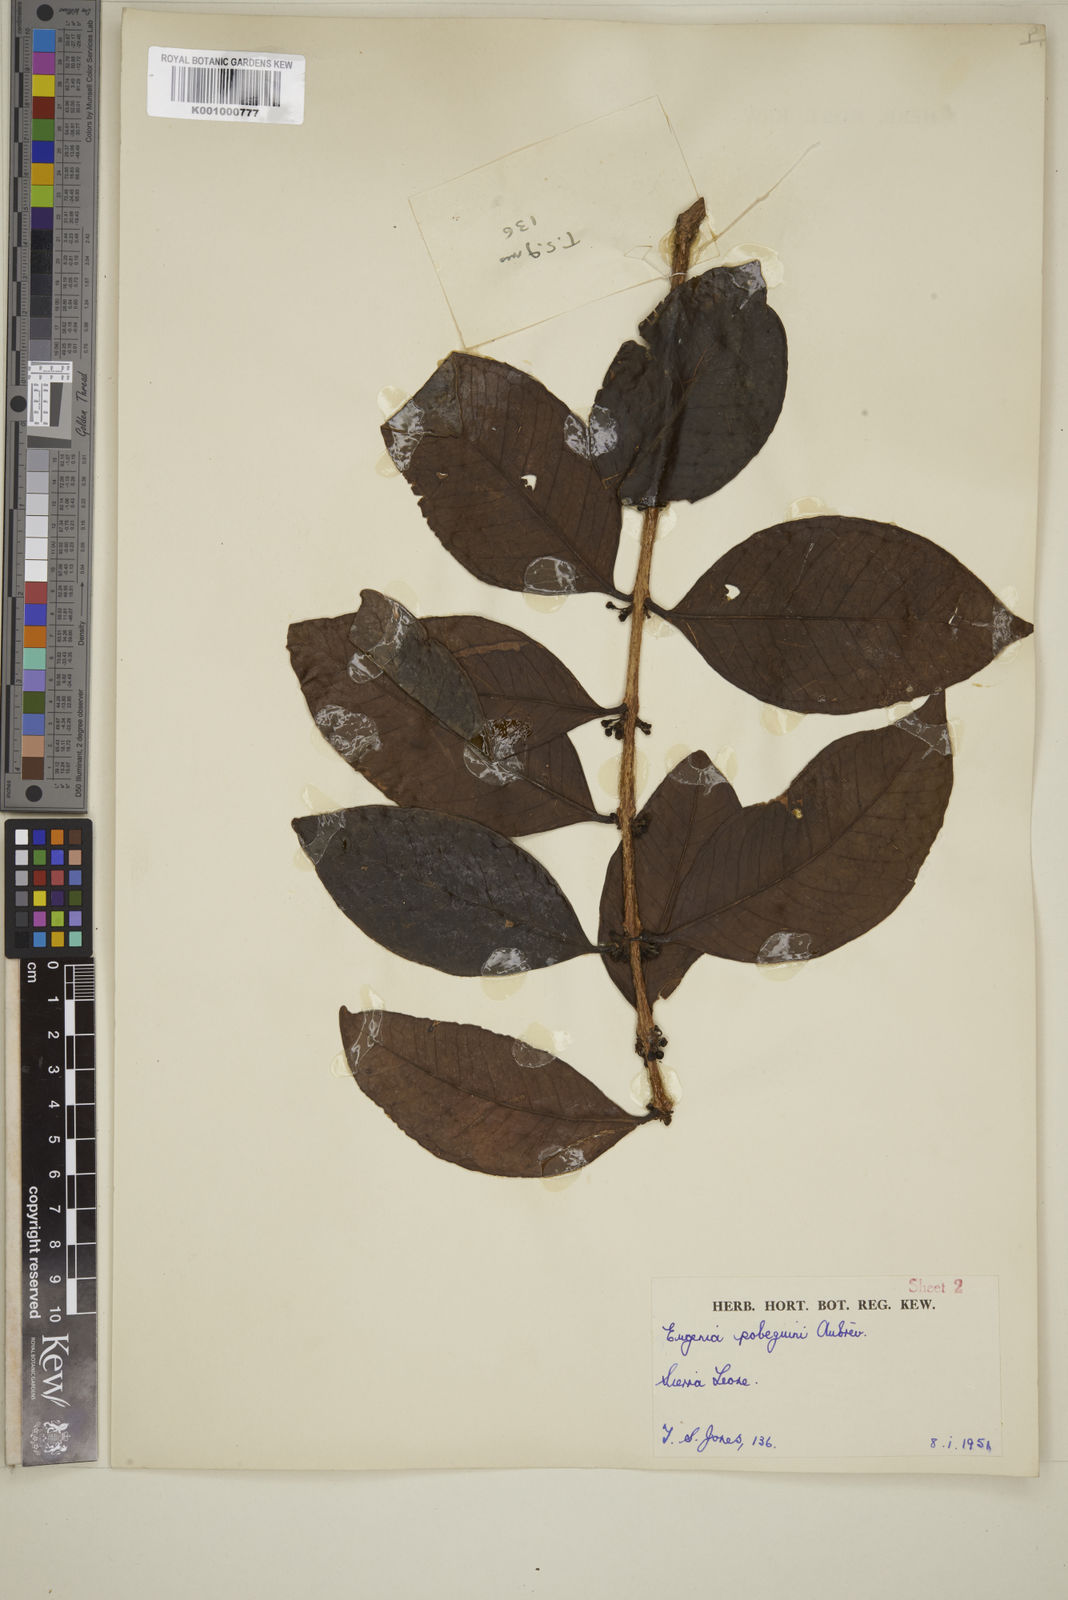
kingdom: Plantae
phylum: Tracheophyta
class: Magnoliopsida
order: Myrtales
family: Myrtaceae
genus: Eugenia
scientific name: Eugenia
